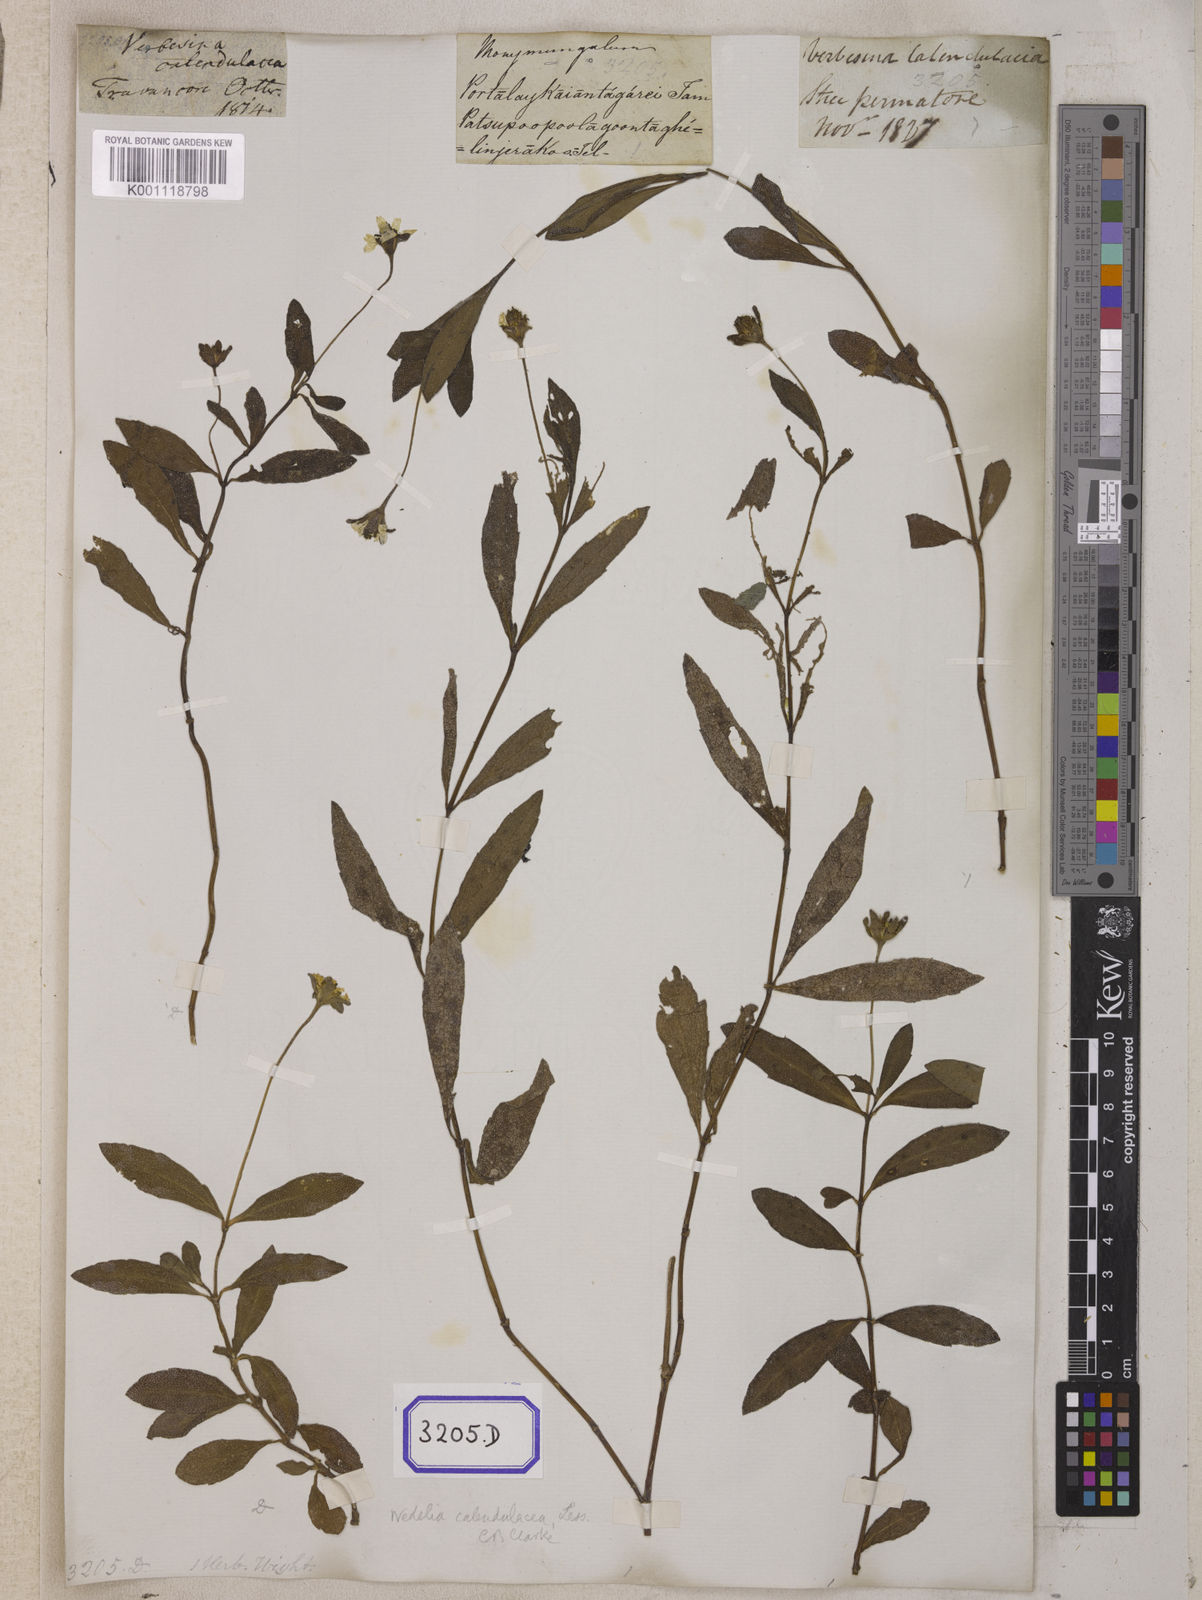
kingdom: Plantae
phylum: Tracheophyta
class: Magnoliopsida
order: Asterales
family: Asteraceae
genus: Sphagneticola
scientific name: Sphagneticola calendulacea
